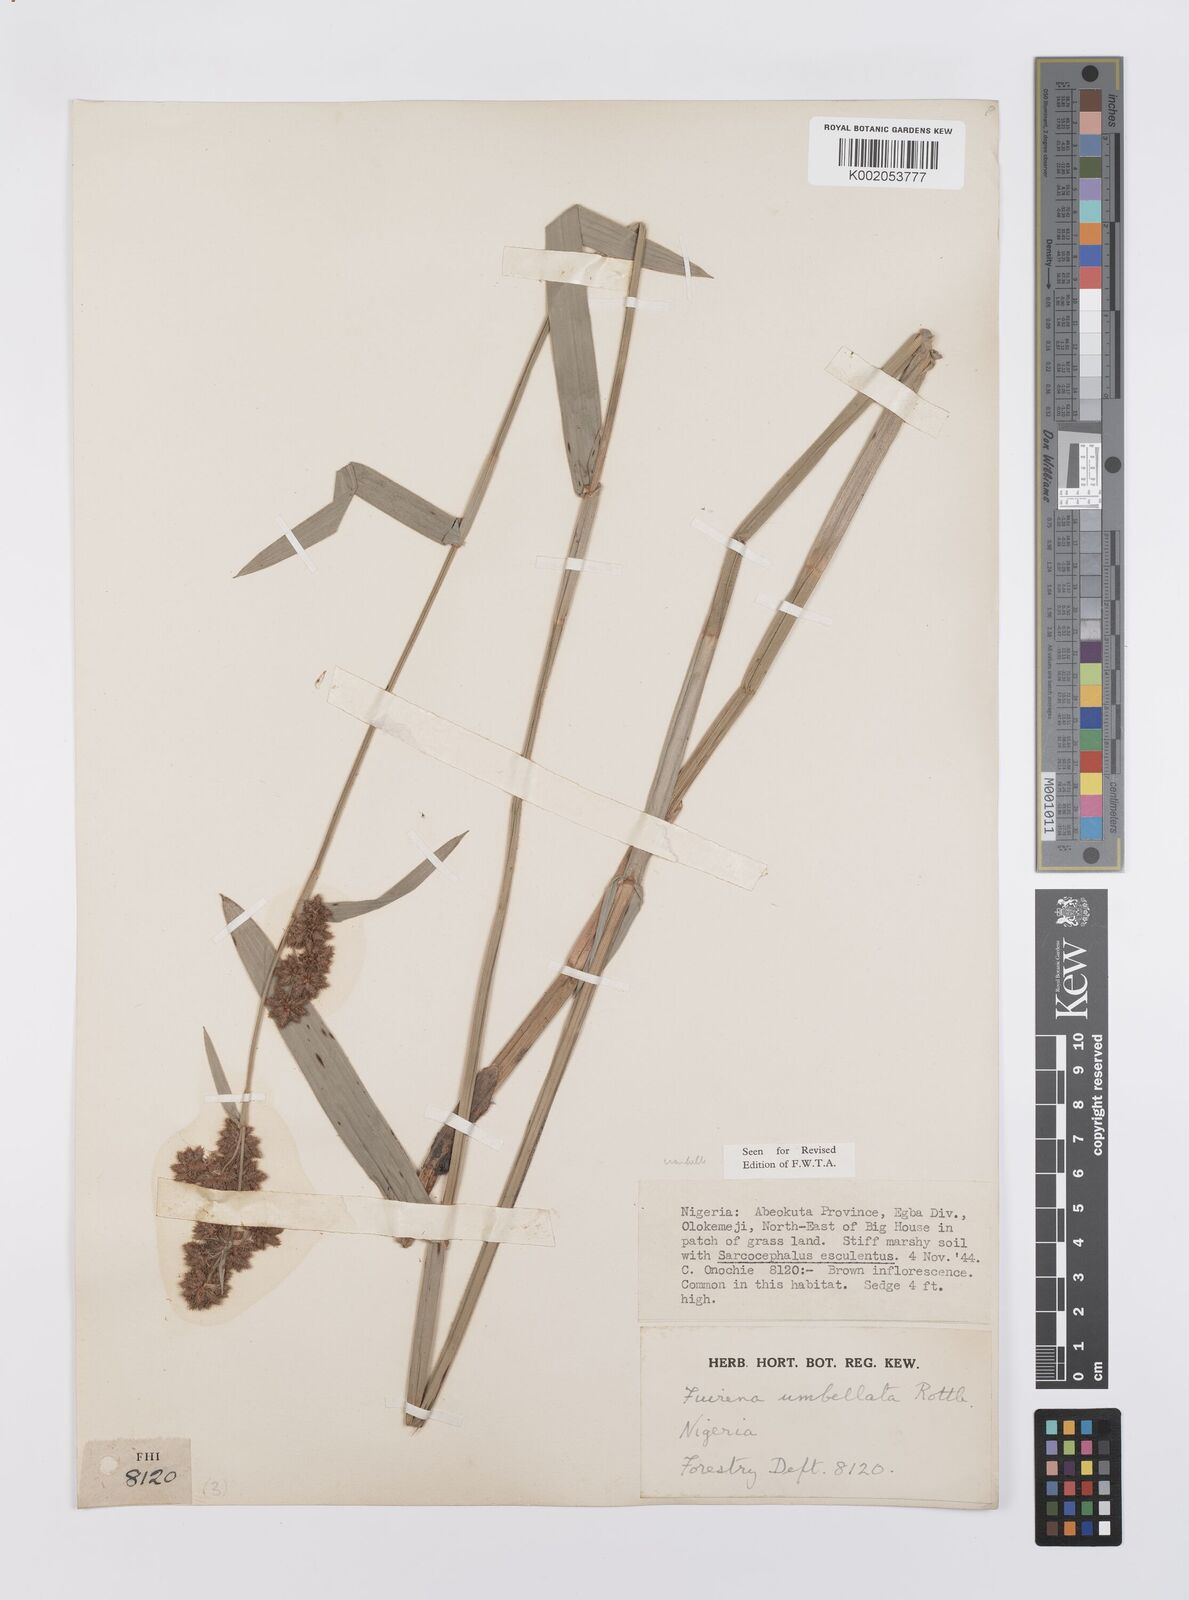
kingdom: Plantae
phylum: Tracheophyta
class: Liliopsida
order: Poales
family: Cyperaceae
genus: Fuirena
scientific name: Fuirena umbellata
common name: Yefen
